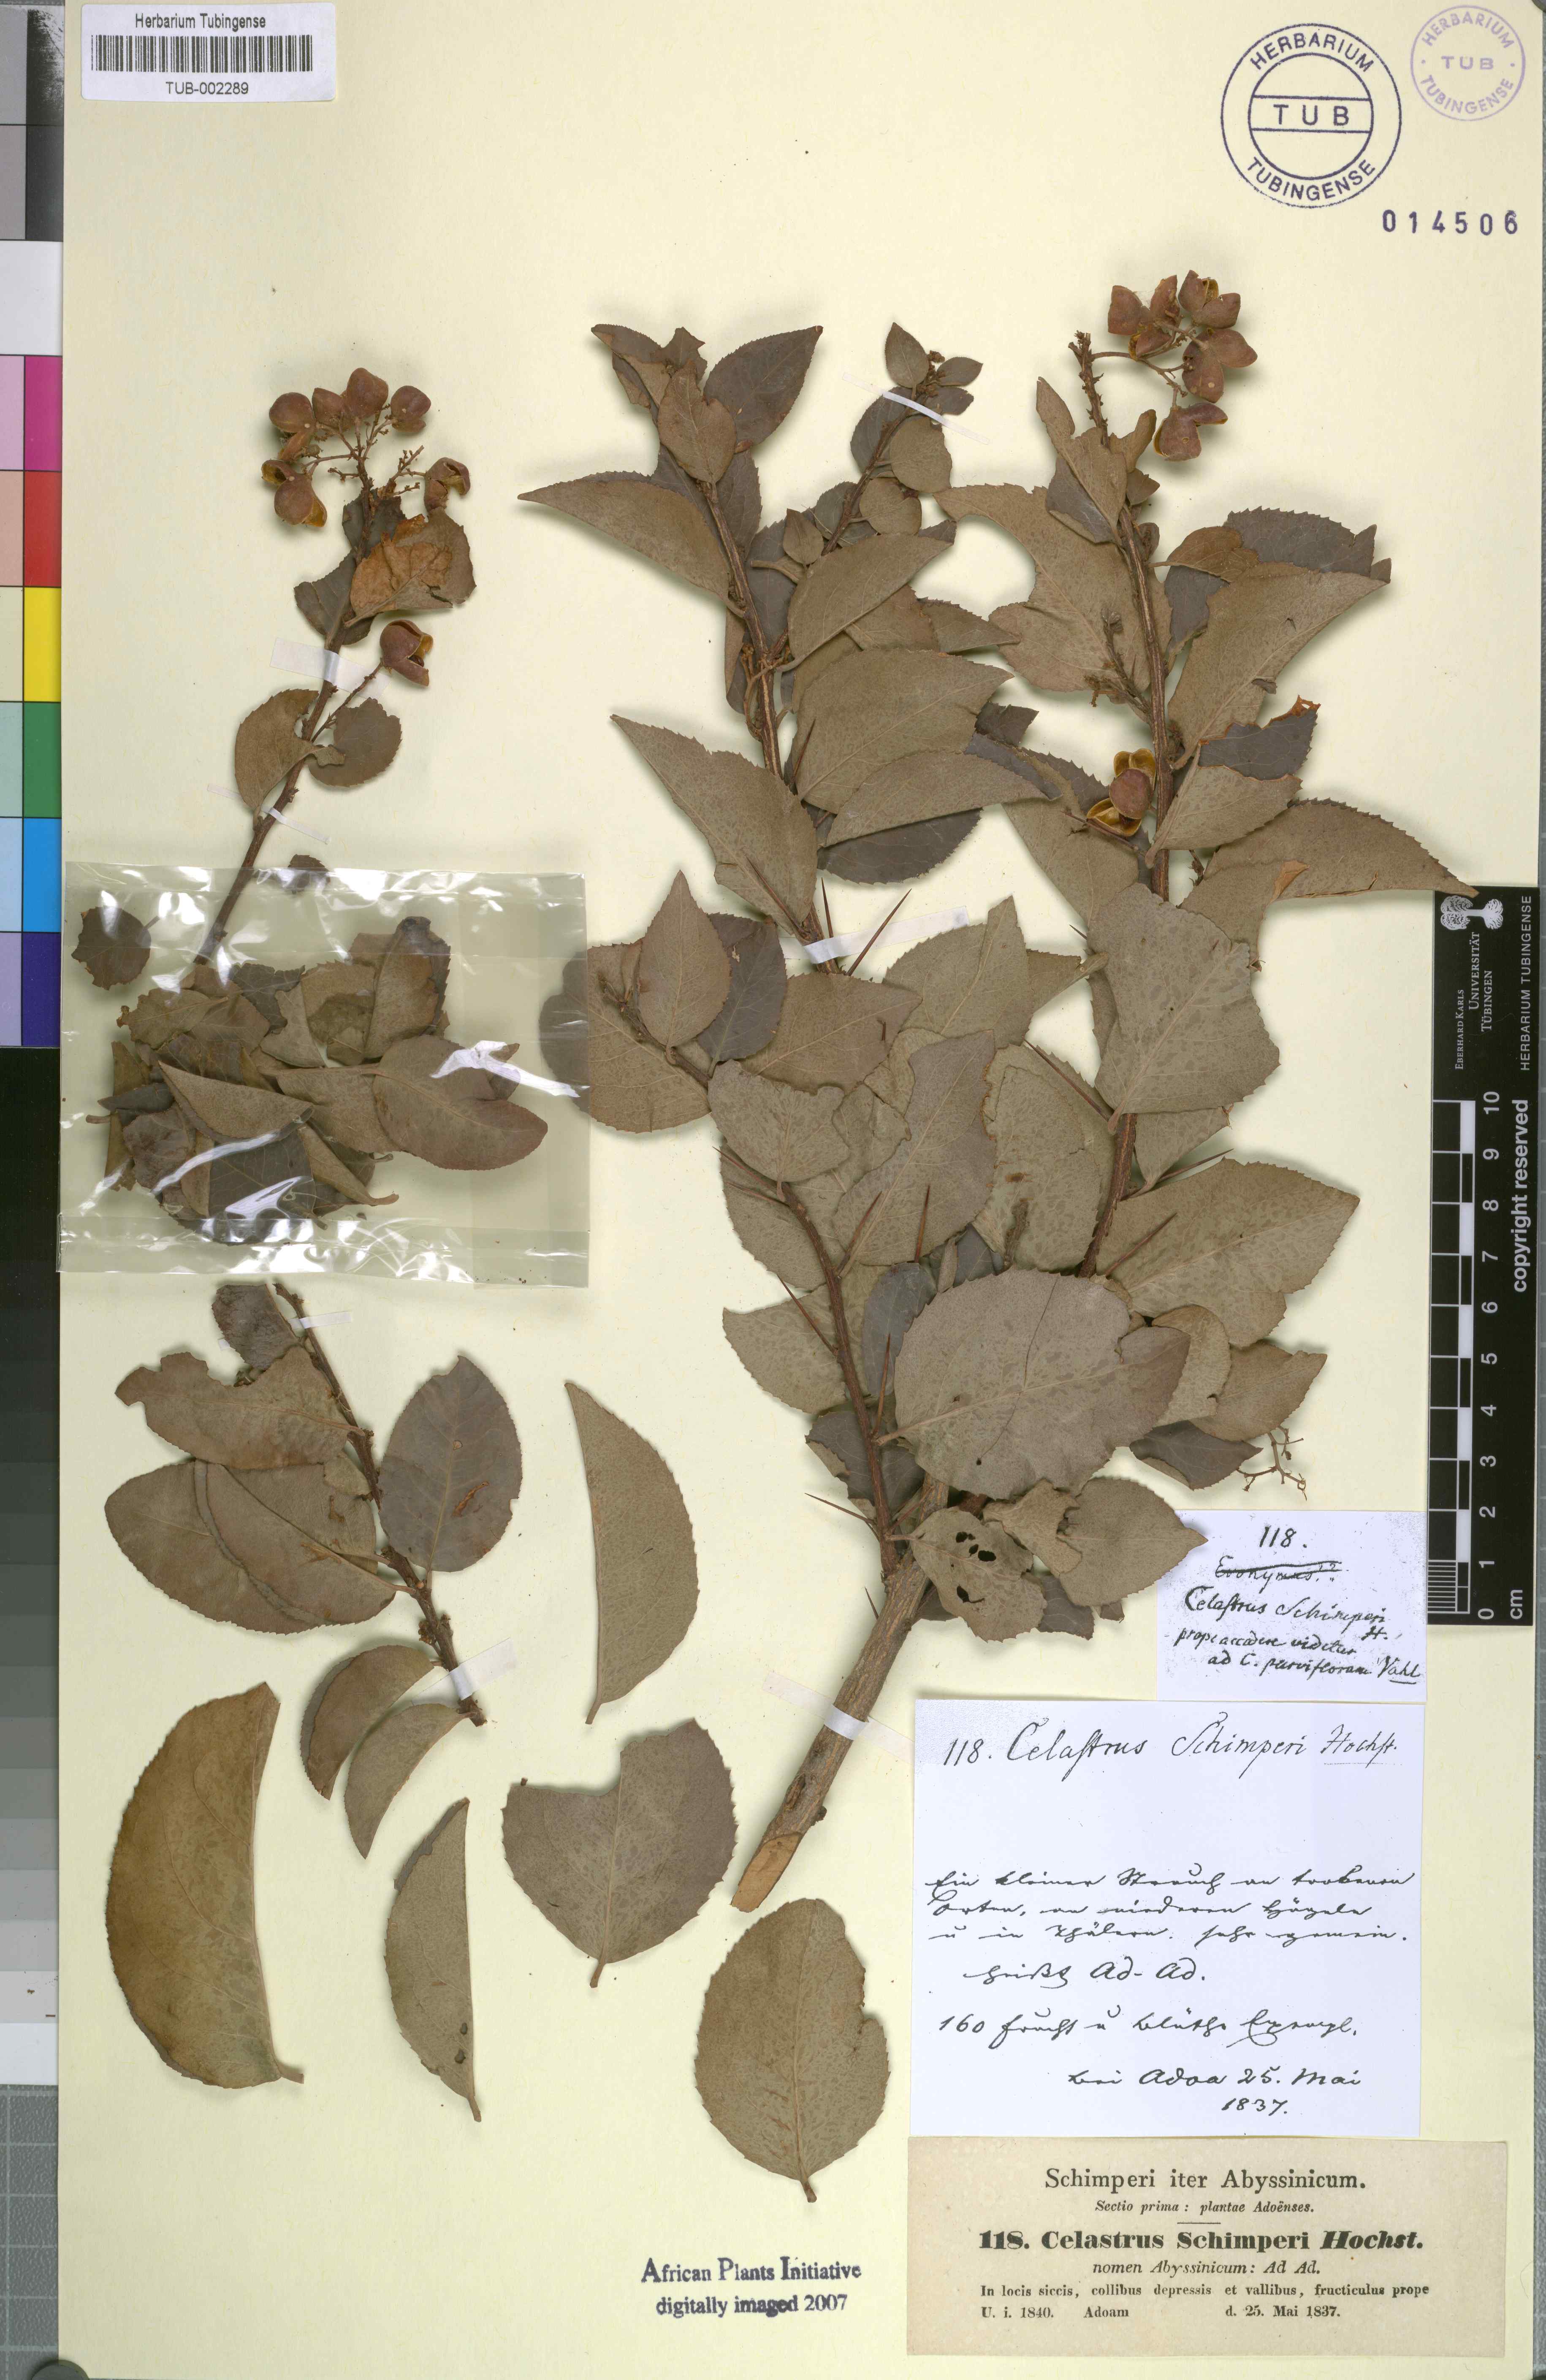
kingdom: Plantae
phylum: Tracheophyta
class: Magnoliopsida
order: Celastrales
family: Celastraceae
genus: Gymnosporia
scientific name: Gymnosporia serrata
